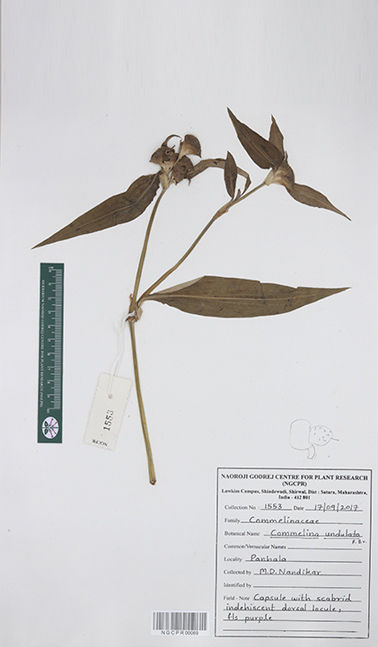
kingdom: Plantae
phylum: Tracheophyta
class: Liliopsida
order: Commelinales
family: Commelinaceae
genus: Commelina
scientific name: Commelina undulata
